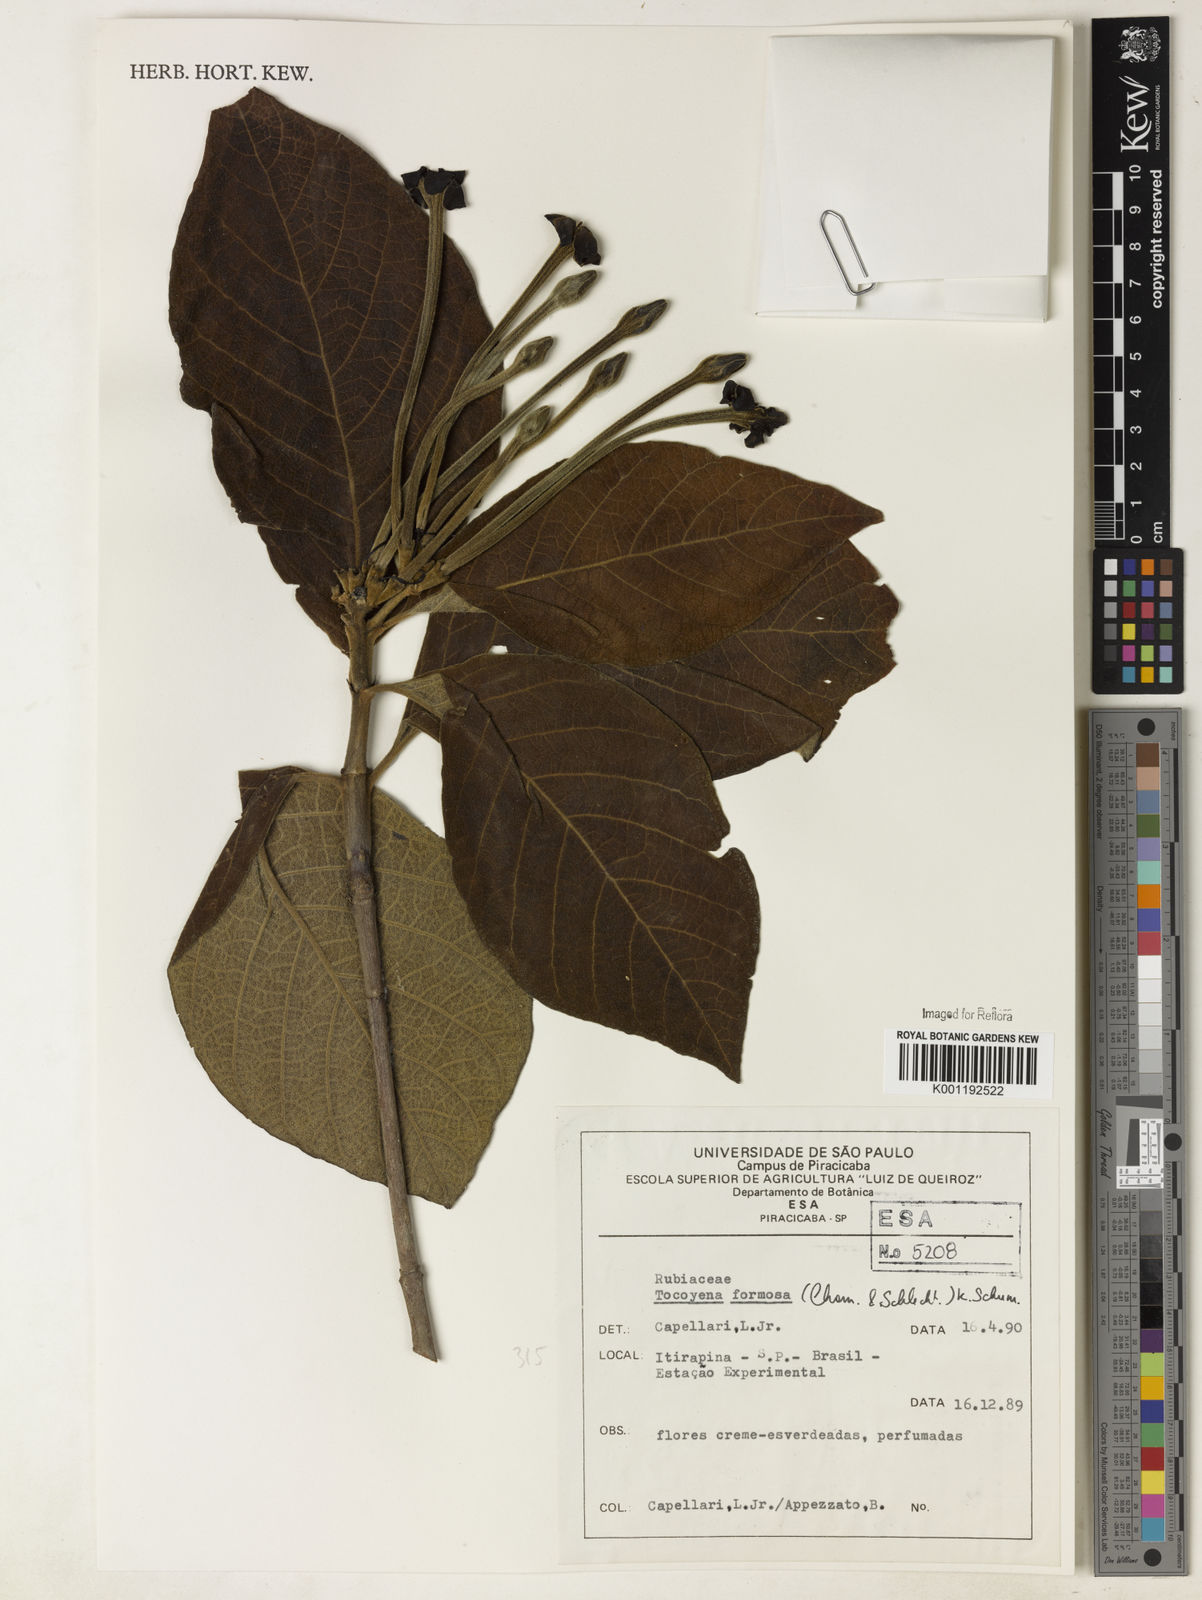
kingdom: Plantae
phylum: Tracheophyta
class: Magnoliopsida
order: Gentianales
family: Rubiaceae
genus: Tocoyena
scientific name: Tocoyena formosa
